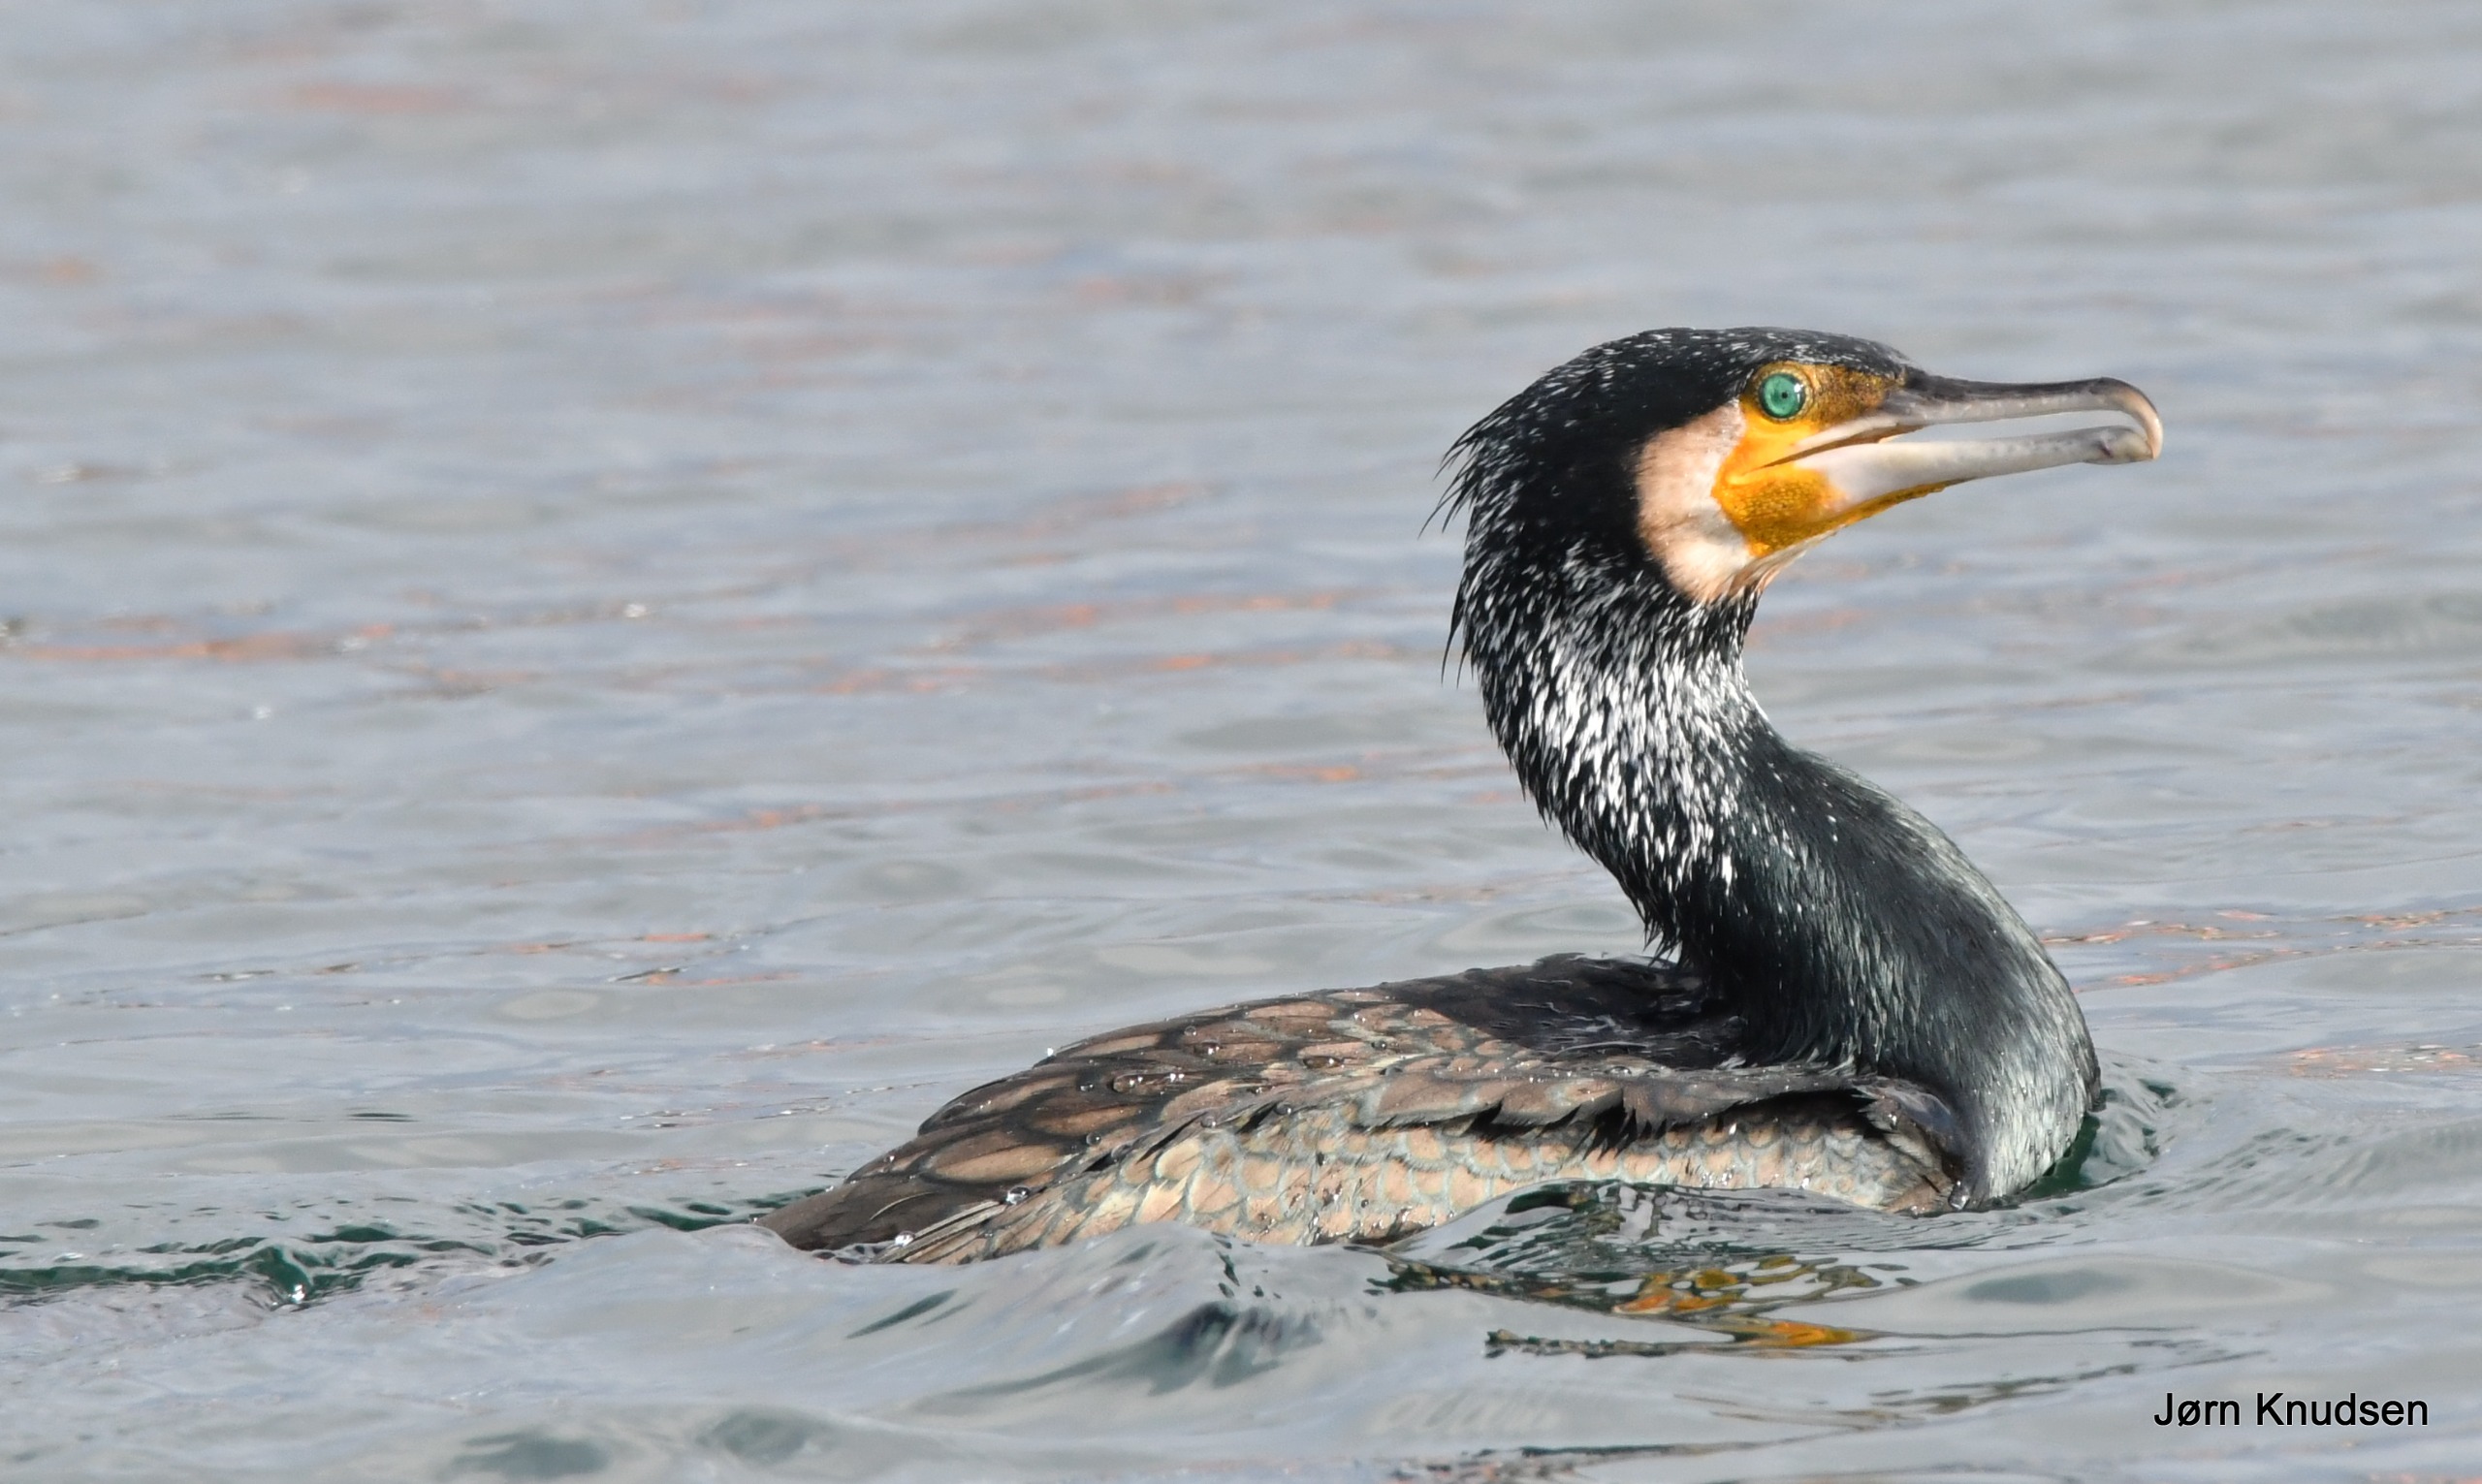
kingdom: Animalia
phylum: Chordata
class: Aves
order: Suliformes
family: Phalacrocoracidae
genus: Phalacrocorax
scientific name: Phalacrocorax carbo
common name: Mellemskarv
